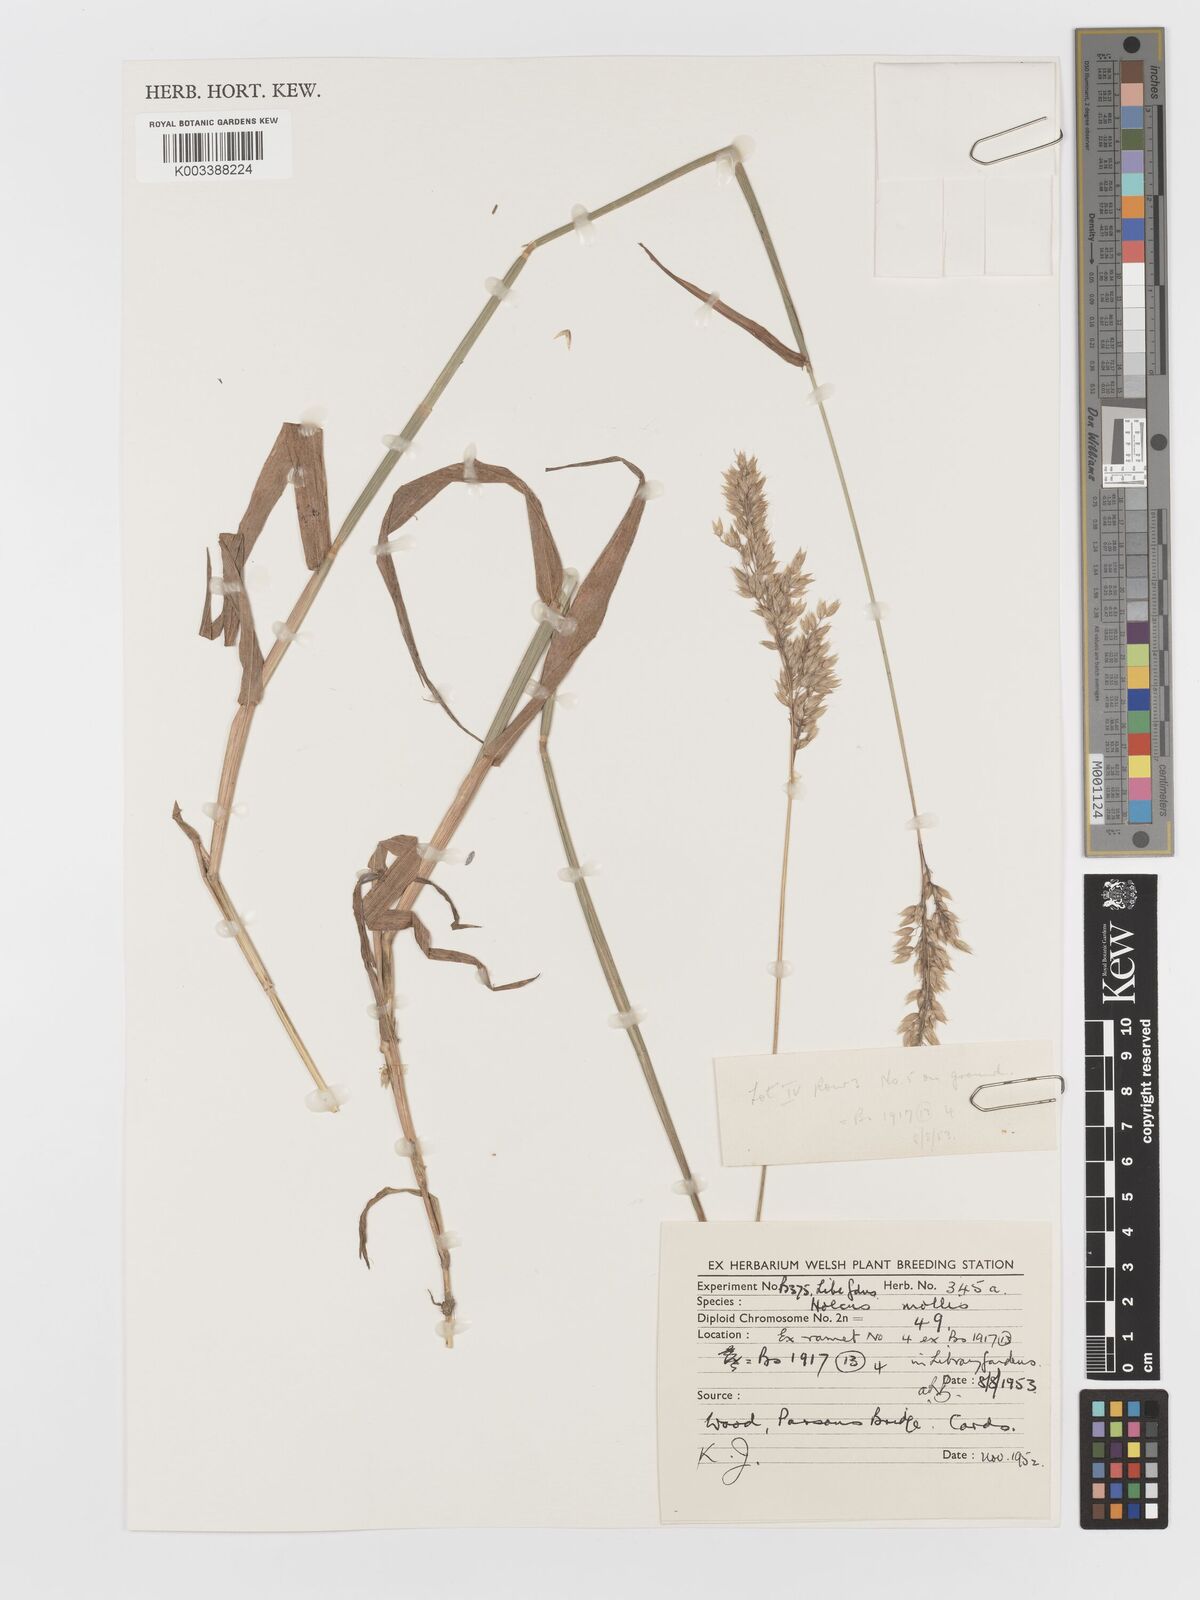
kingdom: Plantae
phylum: Tracheophyta
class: Liliopsida
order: Poales
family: Poaceae
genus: Holcus
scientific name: Holcus mollis
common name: Creeping velvetgrass
